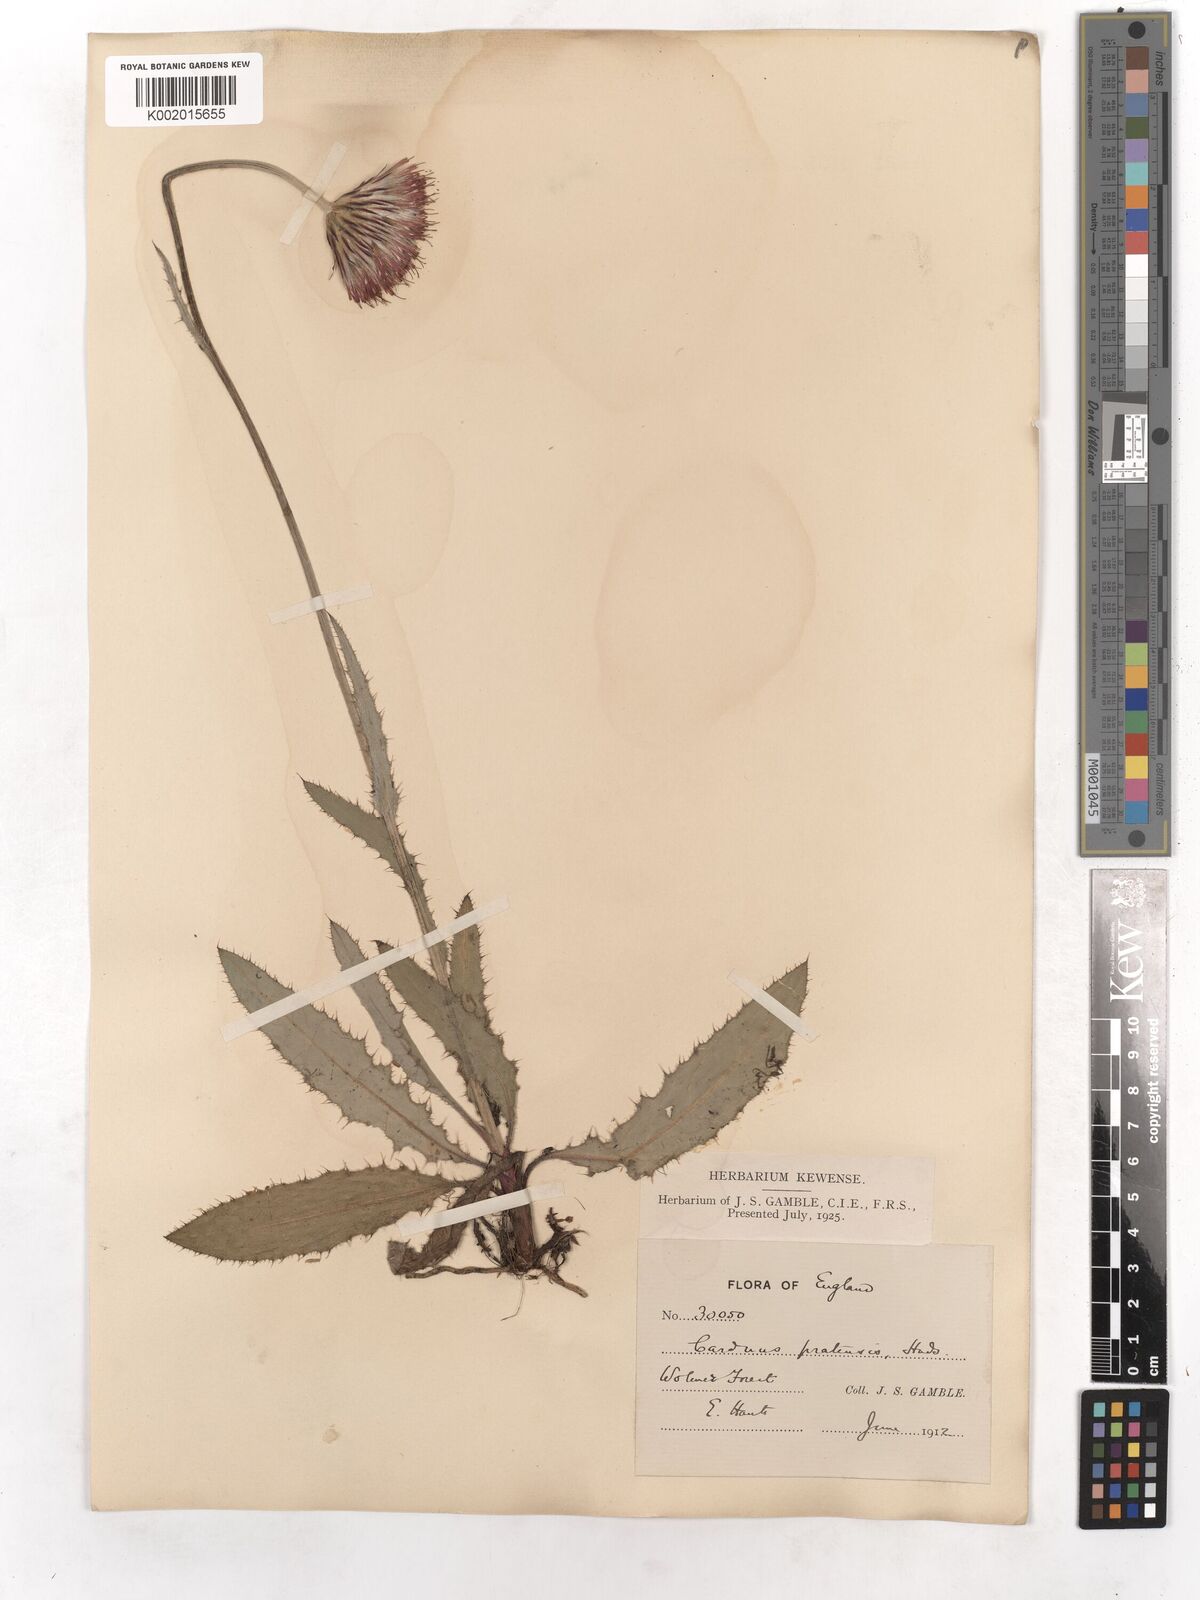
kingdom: Plantae
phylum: Tracheophyta
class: Magnoliopsida
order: Asterales
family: Asteraceae
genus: Cirsium
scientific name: Cirsium dissectum
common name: Meadow thistle
